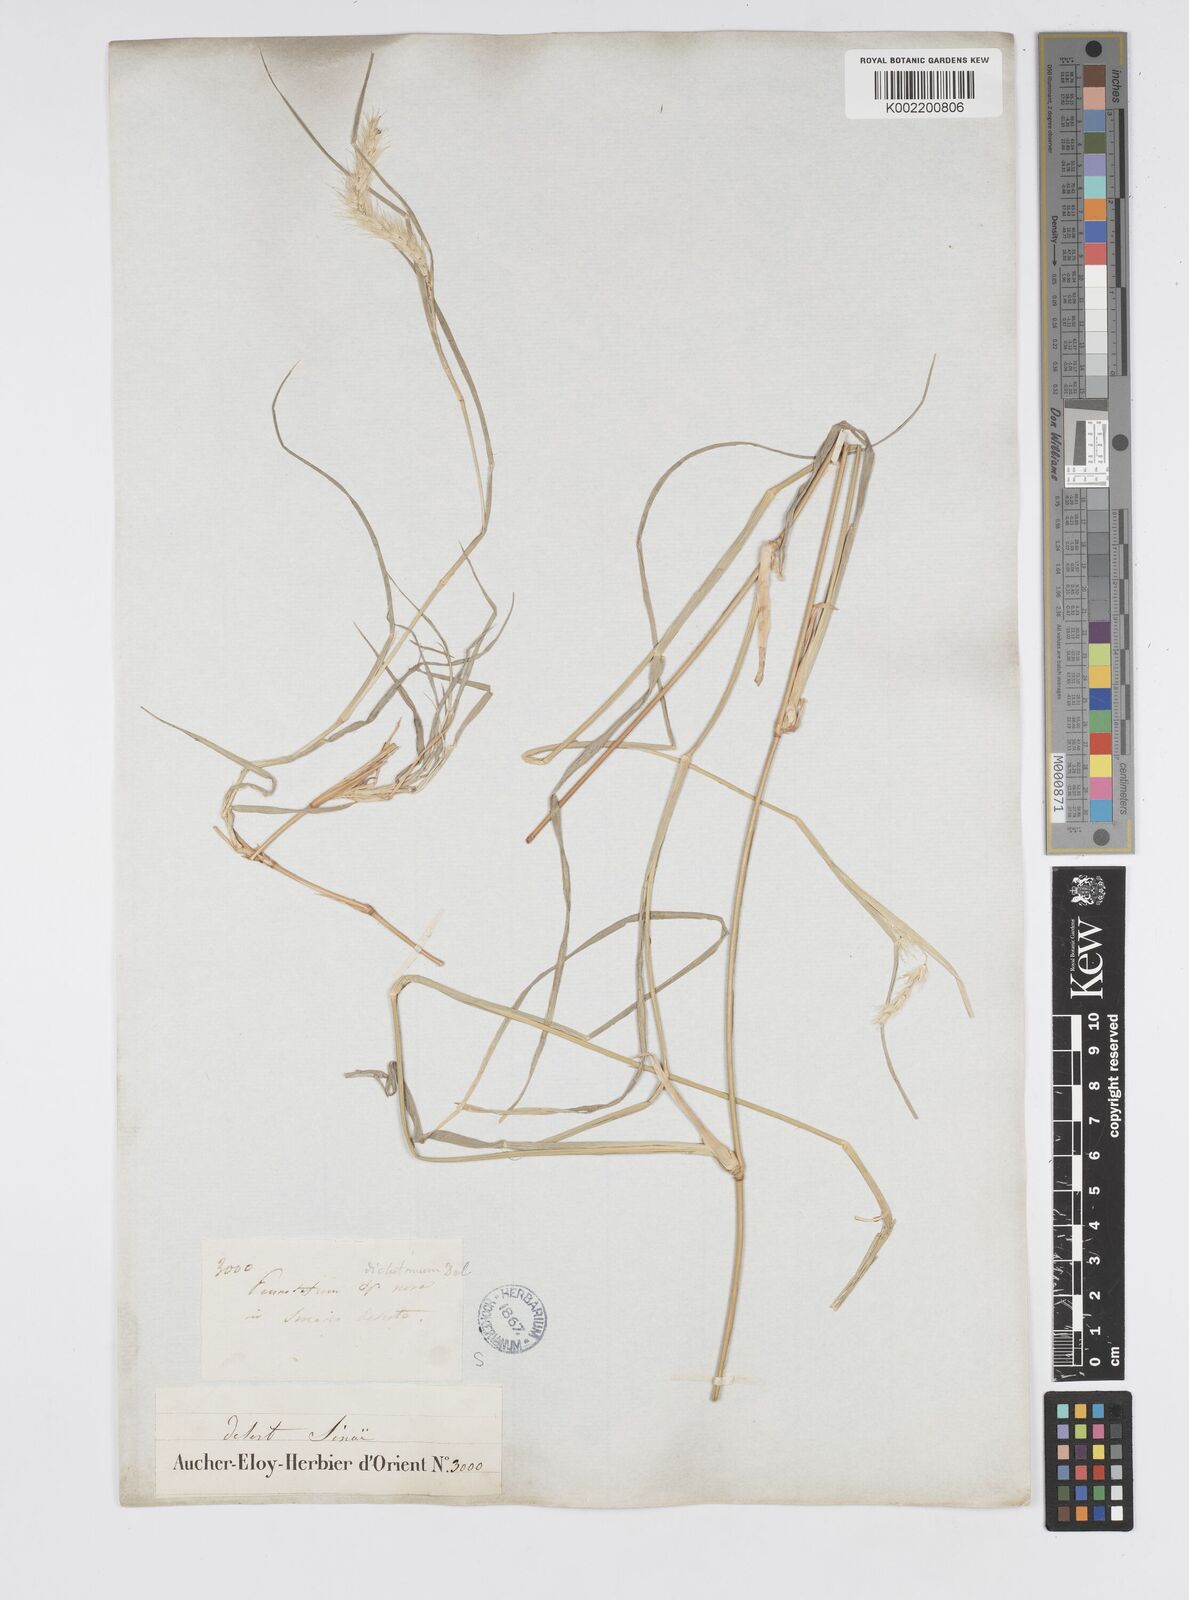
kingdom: Plantae
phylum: Tracheophyta
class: Liliopsida
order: Poales
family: Poaceae
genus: Cenchrus
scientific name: Cenchrus divisus
